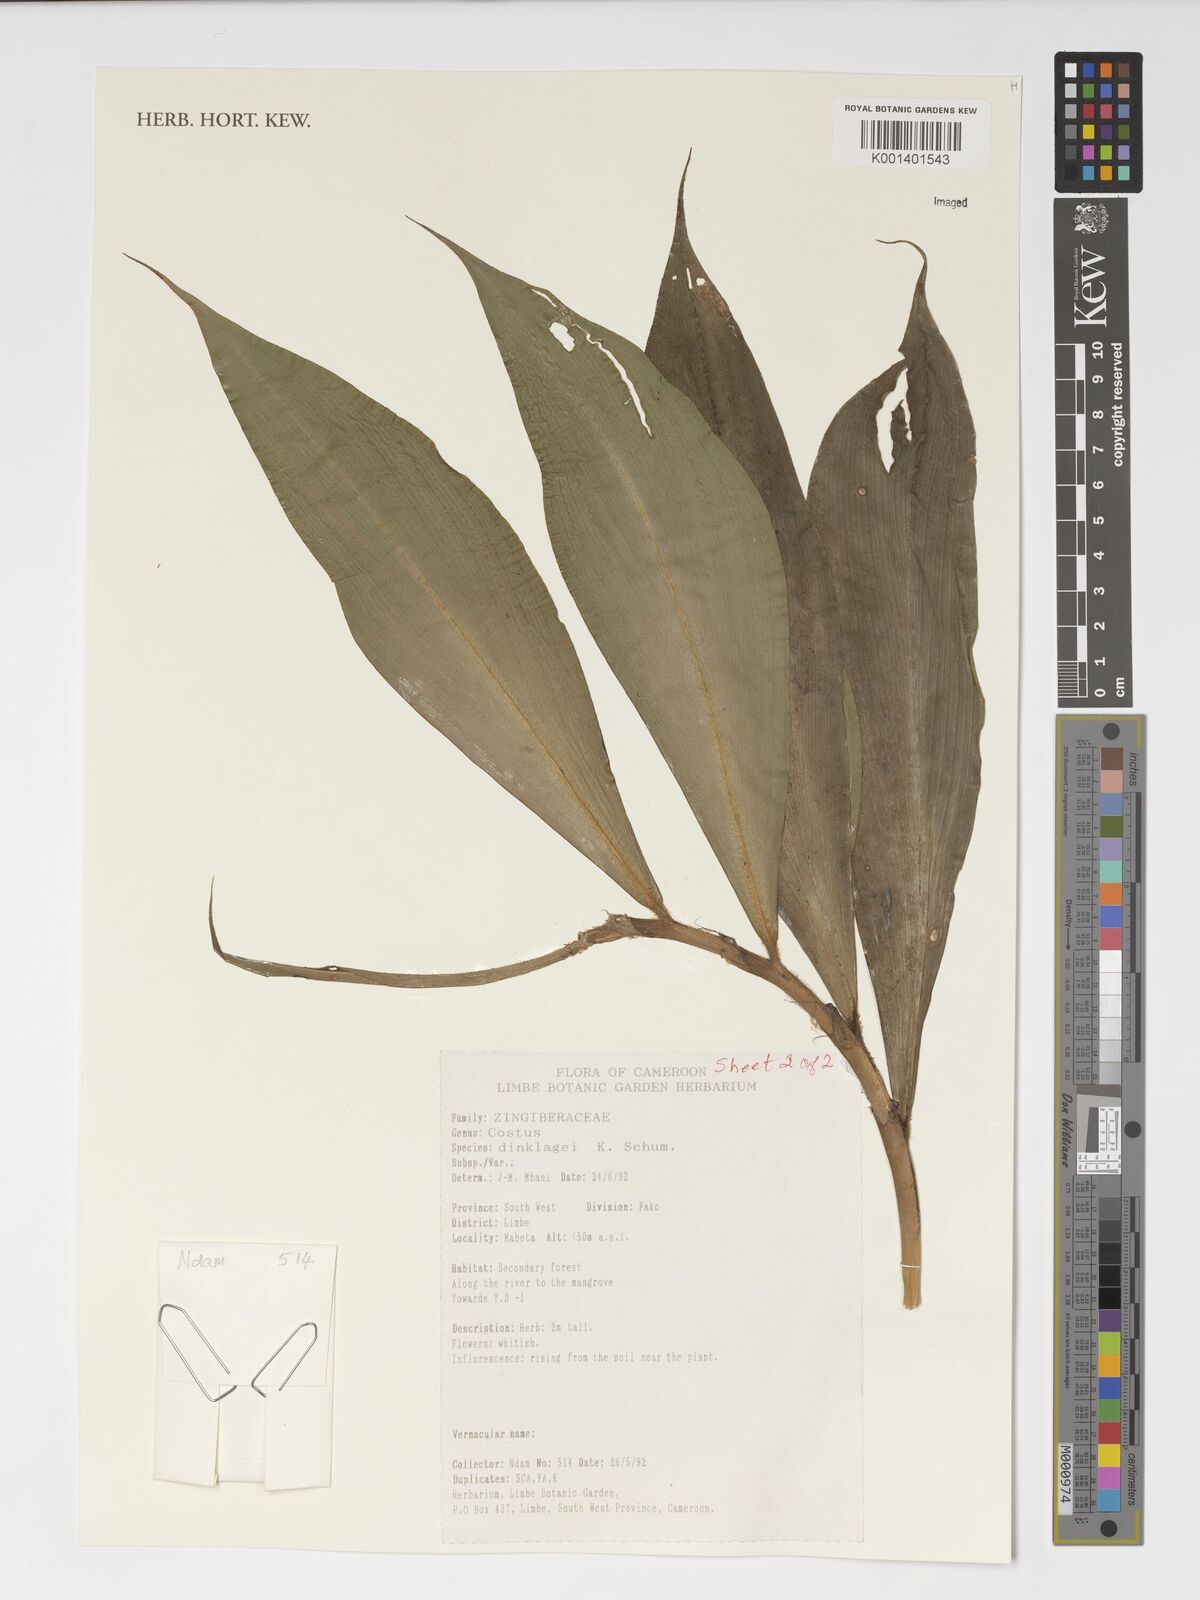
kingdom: Plantae
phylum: Tracheophyta
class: Liliopsida
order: Zingiberales
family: Costaceae
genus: Costus
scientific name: Costus dinklagei
